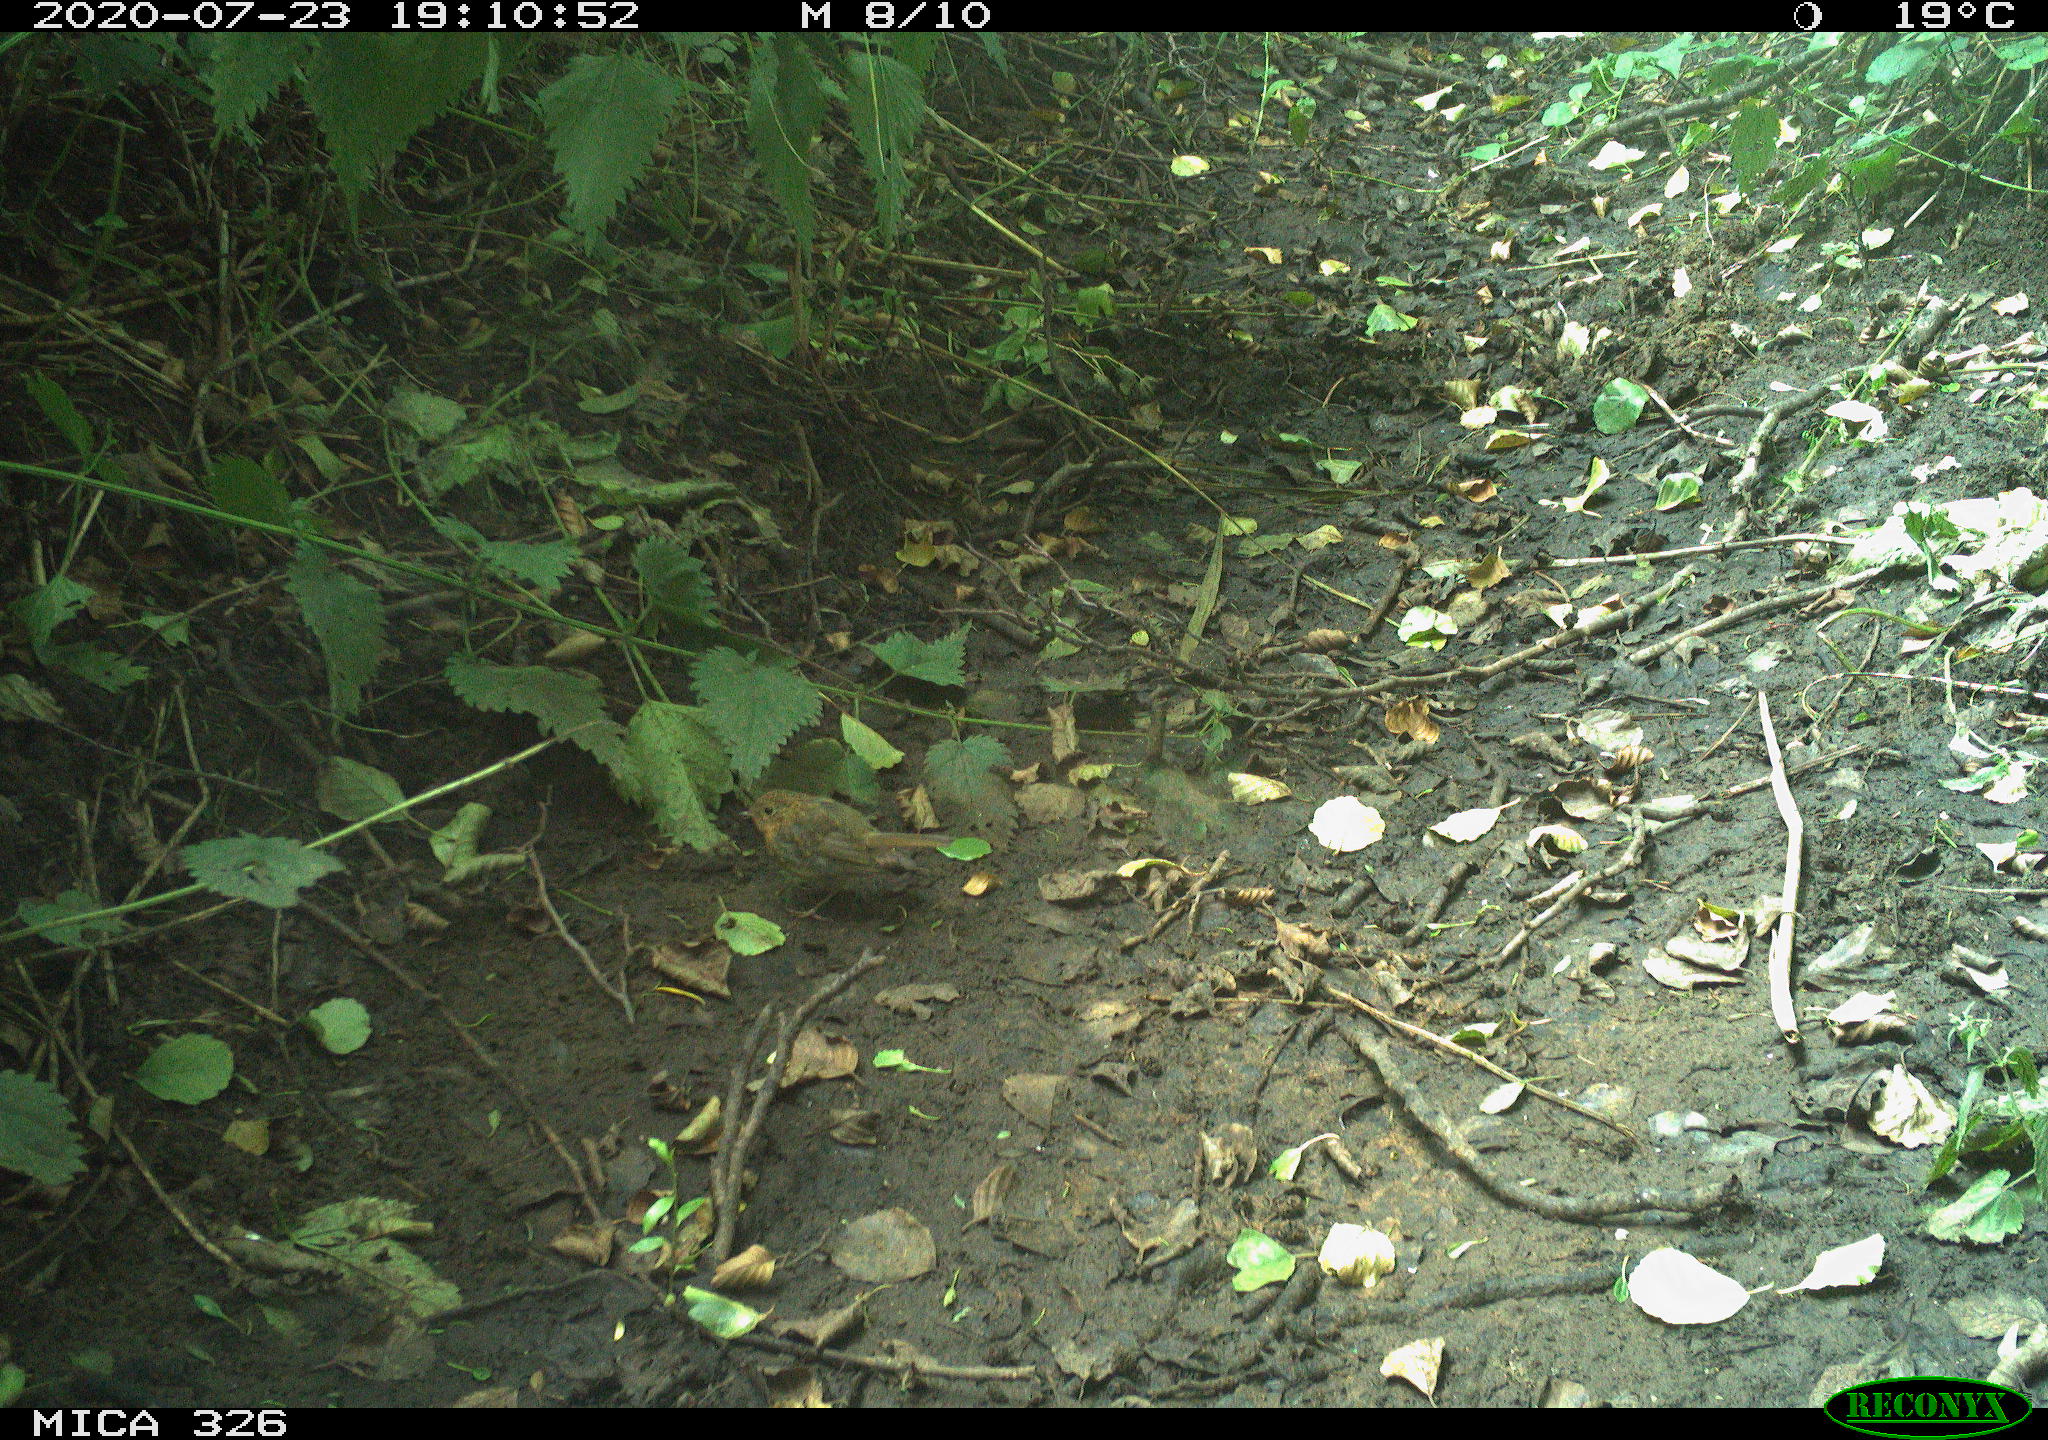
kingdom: Animalia
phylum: Chordata
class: Aves
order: Passeriformes
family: Muscicapidae
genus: Erithacus
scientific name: Erithacus rubecula
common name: European robin
